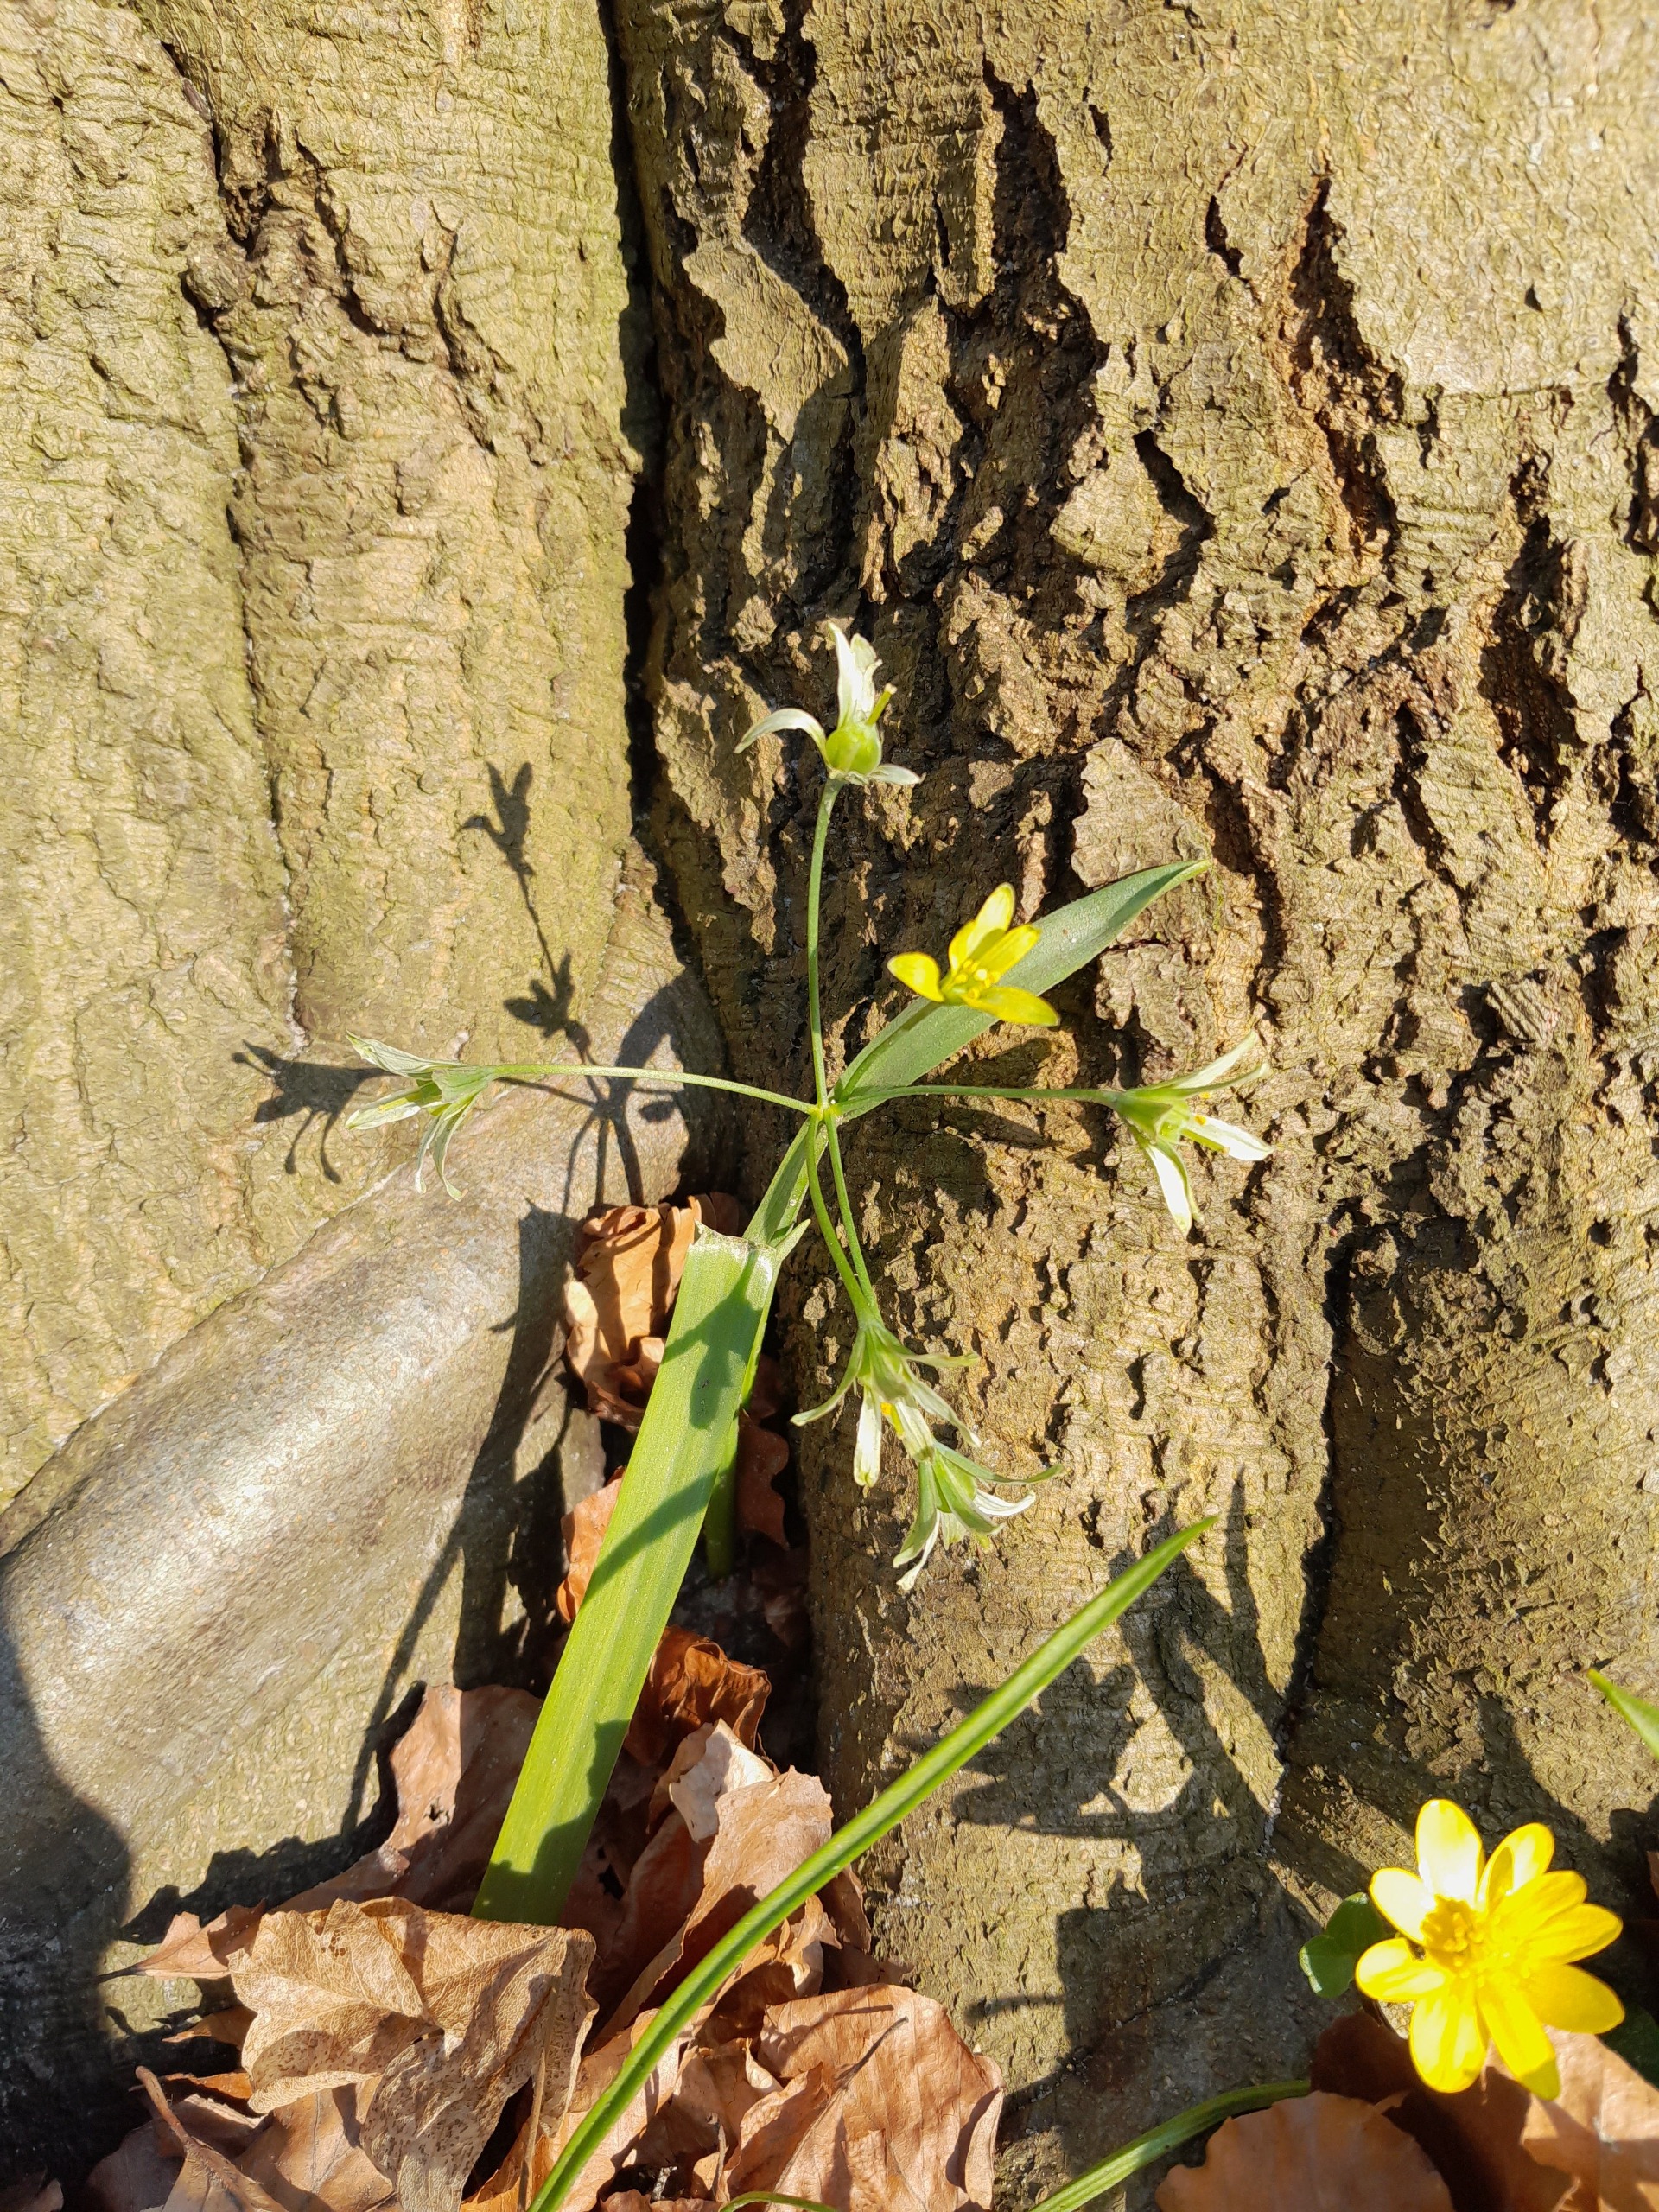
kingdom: Plantae
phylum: Tracheophyta
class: Liliopsida
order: Liliales
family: Liliaceae
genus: Gagea
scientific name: Gagea lutea
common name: Almindelig guldstjerne
